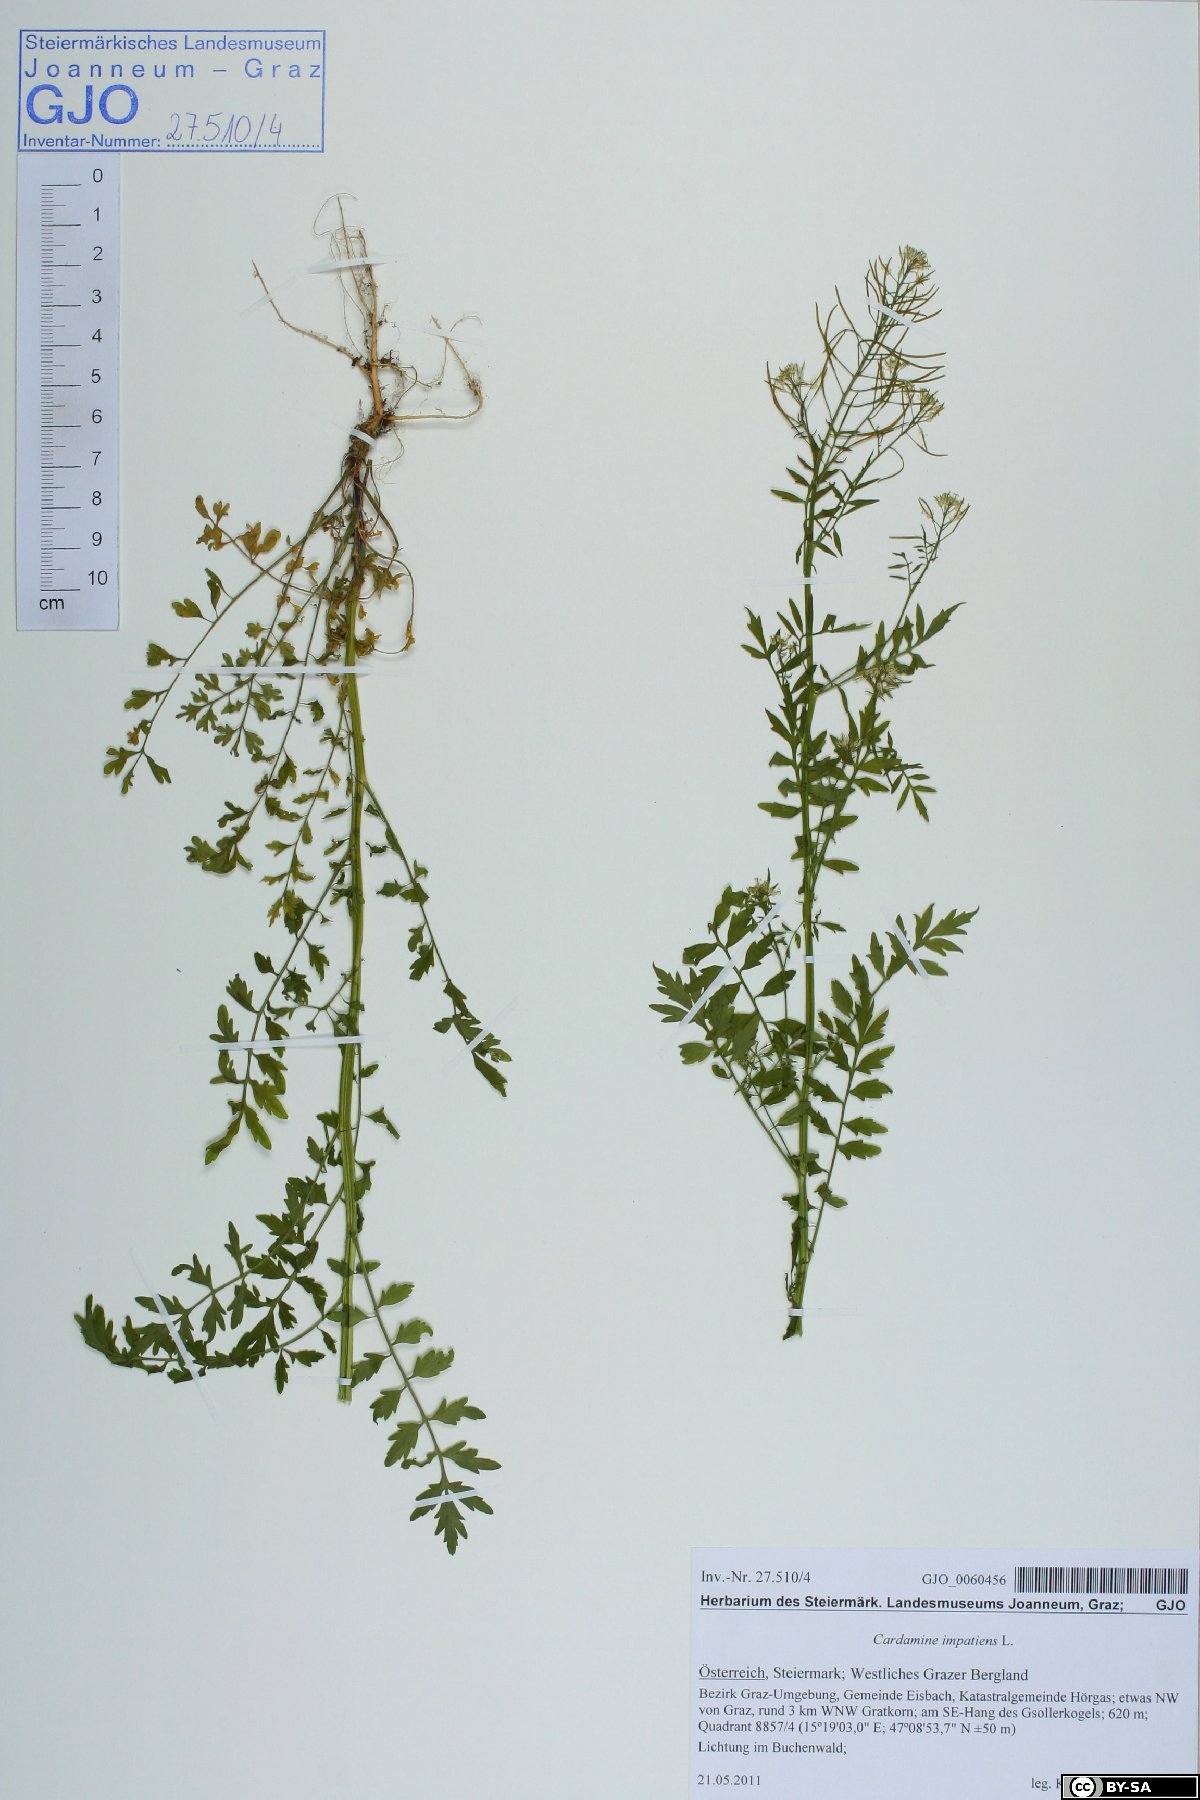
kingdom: Plantae
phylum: Tracheophyta
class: Magnoliopsida
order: Brassicales
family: Brassicaceae
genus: Cardamine
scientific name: Cardamine impatiens
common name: Narrow-leaved bitter-cress
